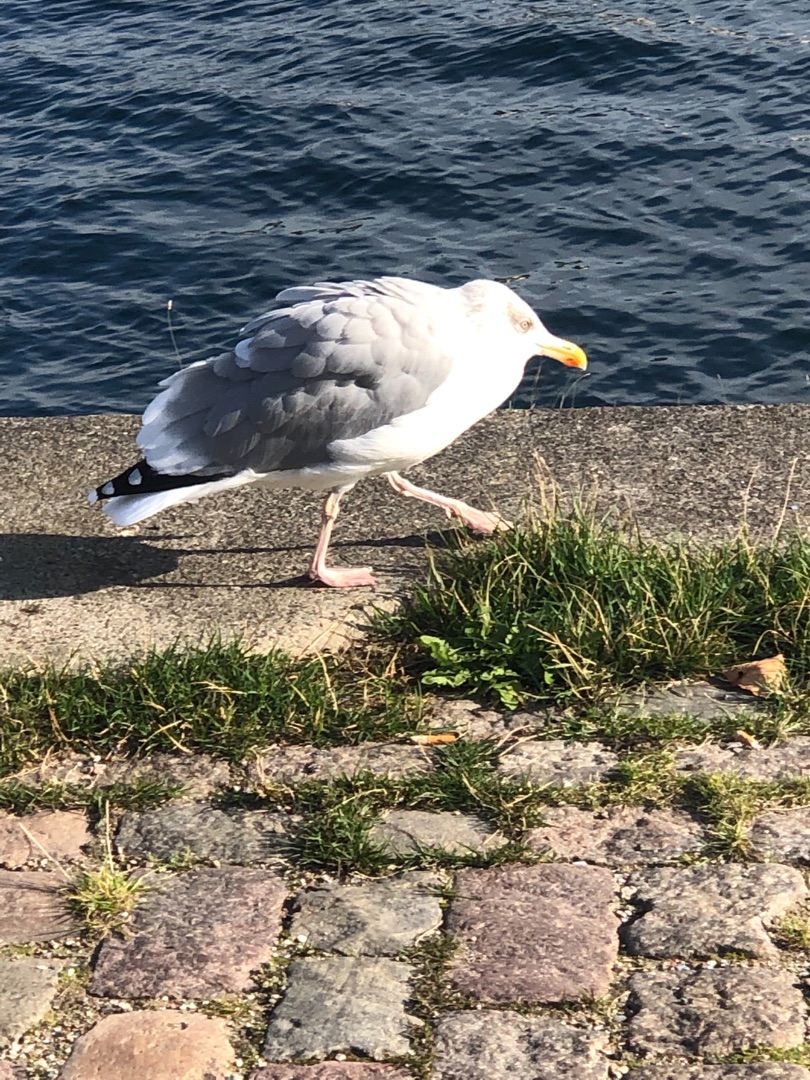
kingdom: Animalia
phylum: Chordata
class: Aves
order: Charadriiformes
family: Laridae
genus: Larus
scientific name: Larus argentatus
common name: Sølvmåge
